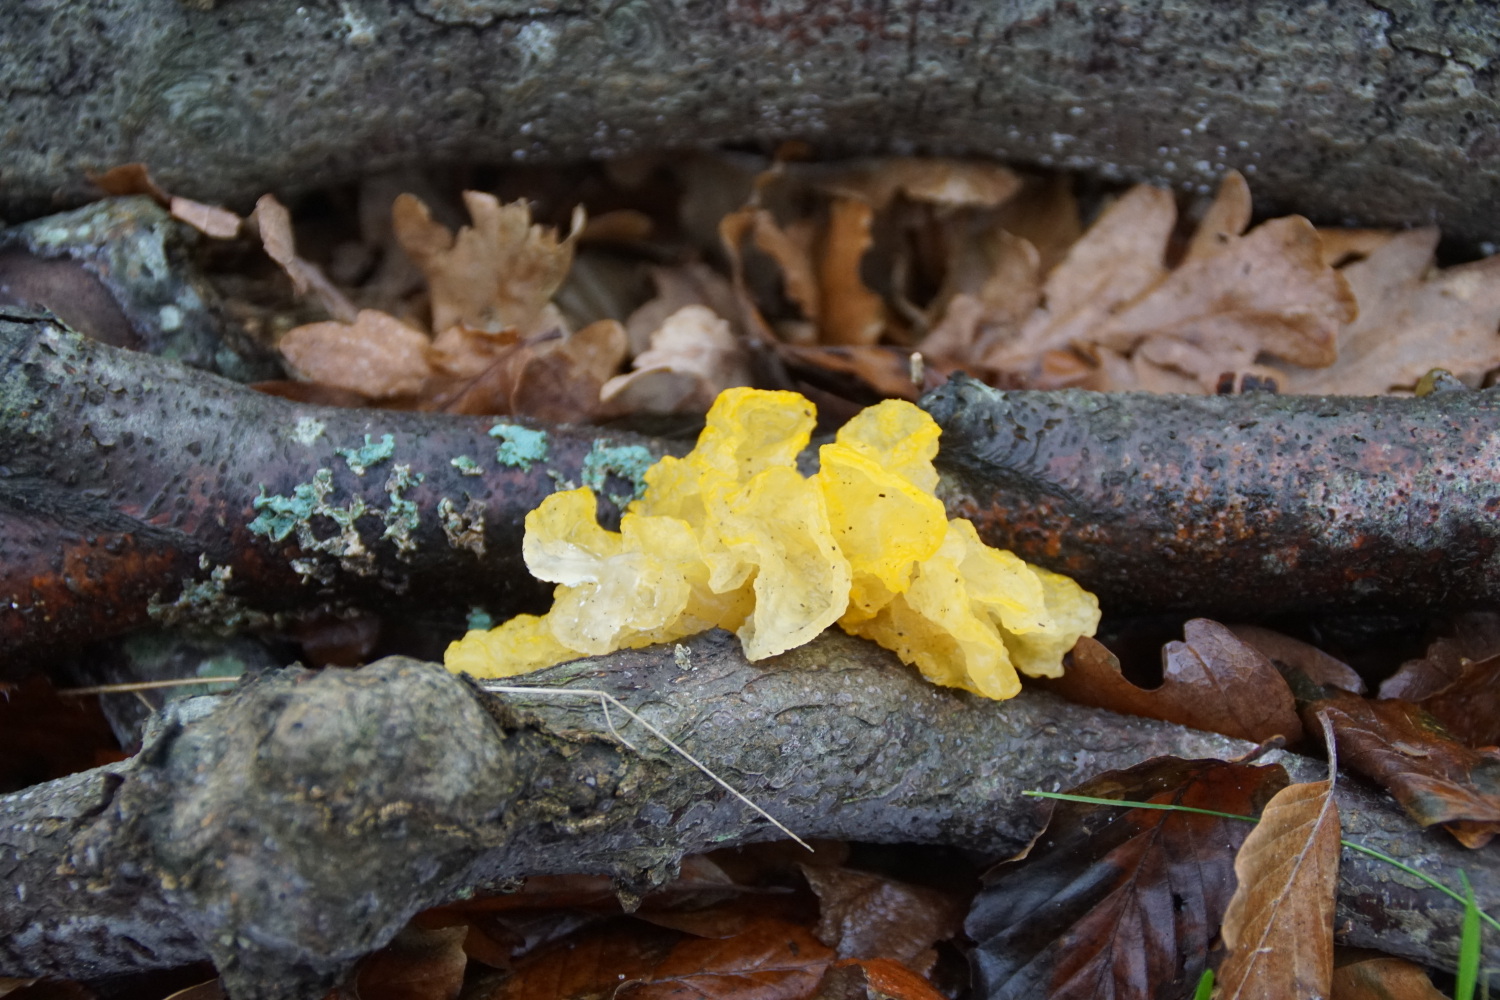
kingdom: Fungi
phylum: Basidiomycota
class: Tremellomycetes
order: Tremellales
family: Tremellaceae
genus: Tremella
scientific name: Tremella mesenterica
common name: gul bævresvamp
